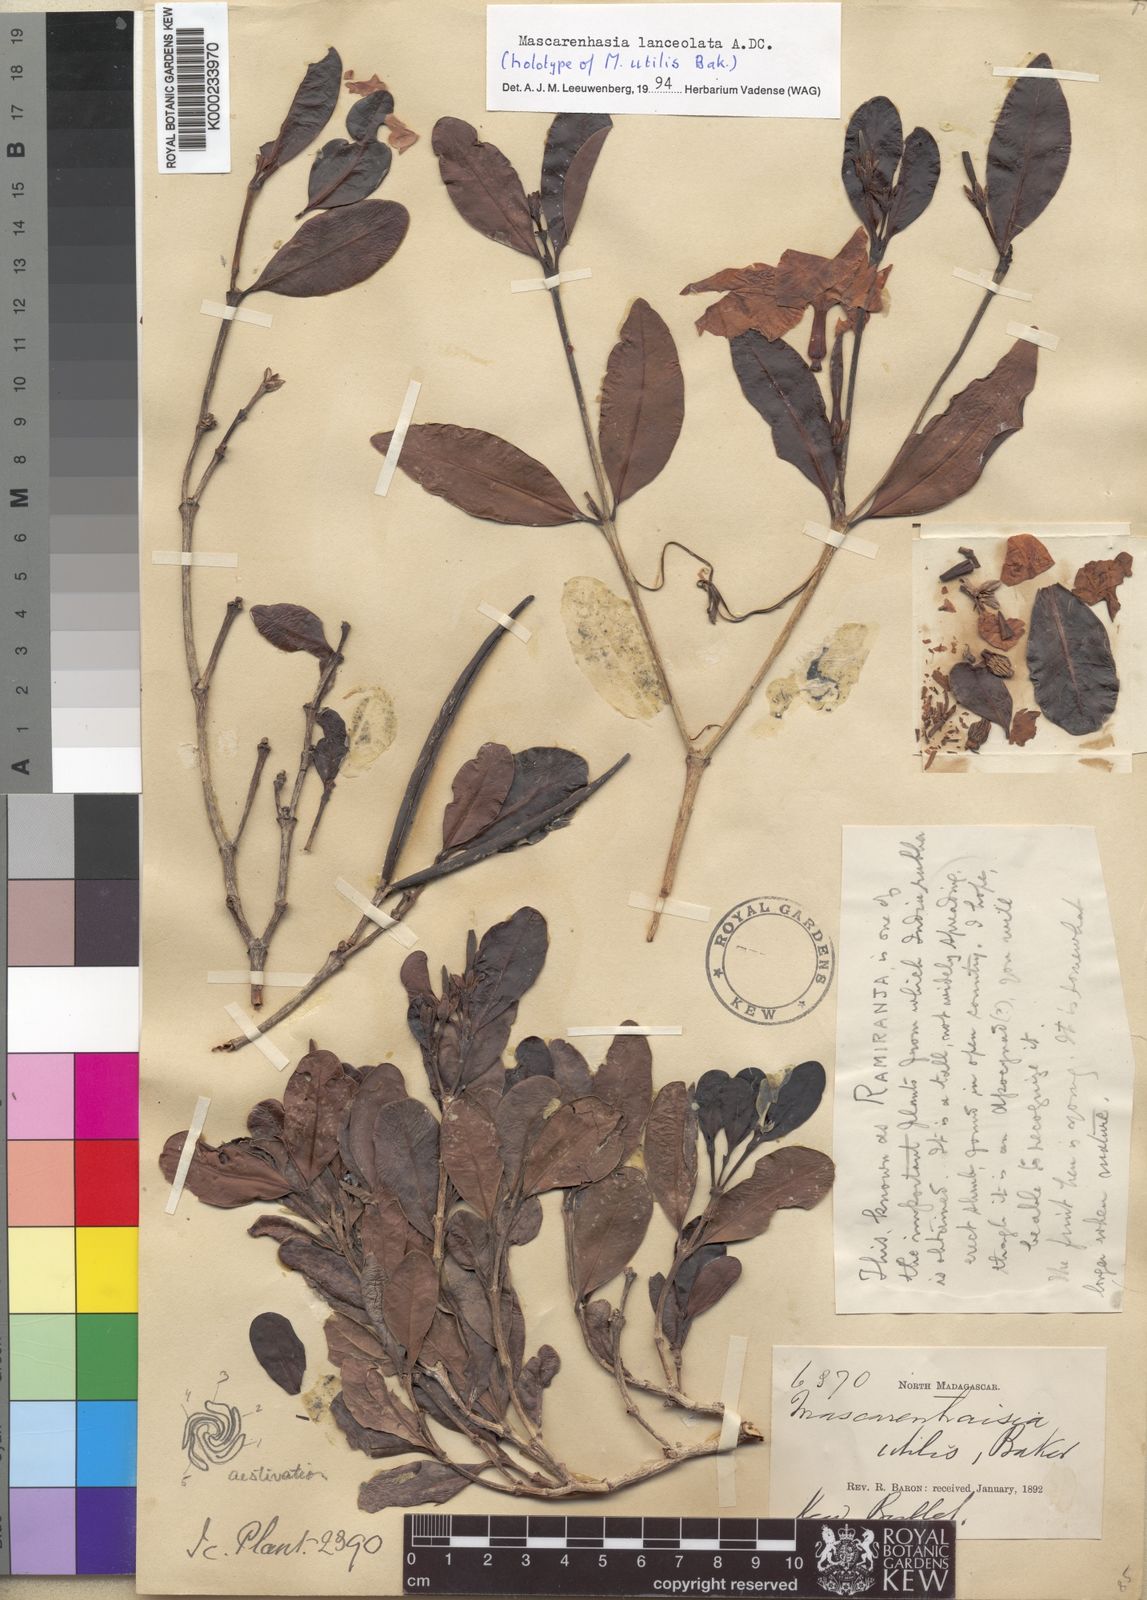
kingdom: Plantae
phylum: Tracheophyta
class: Magnoliopsida
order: Gentianales
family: Apocynaceae
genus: Mascarenhasia
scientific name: Mascarenhasia lanceolata
